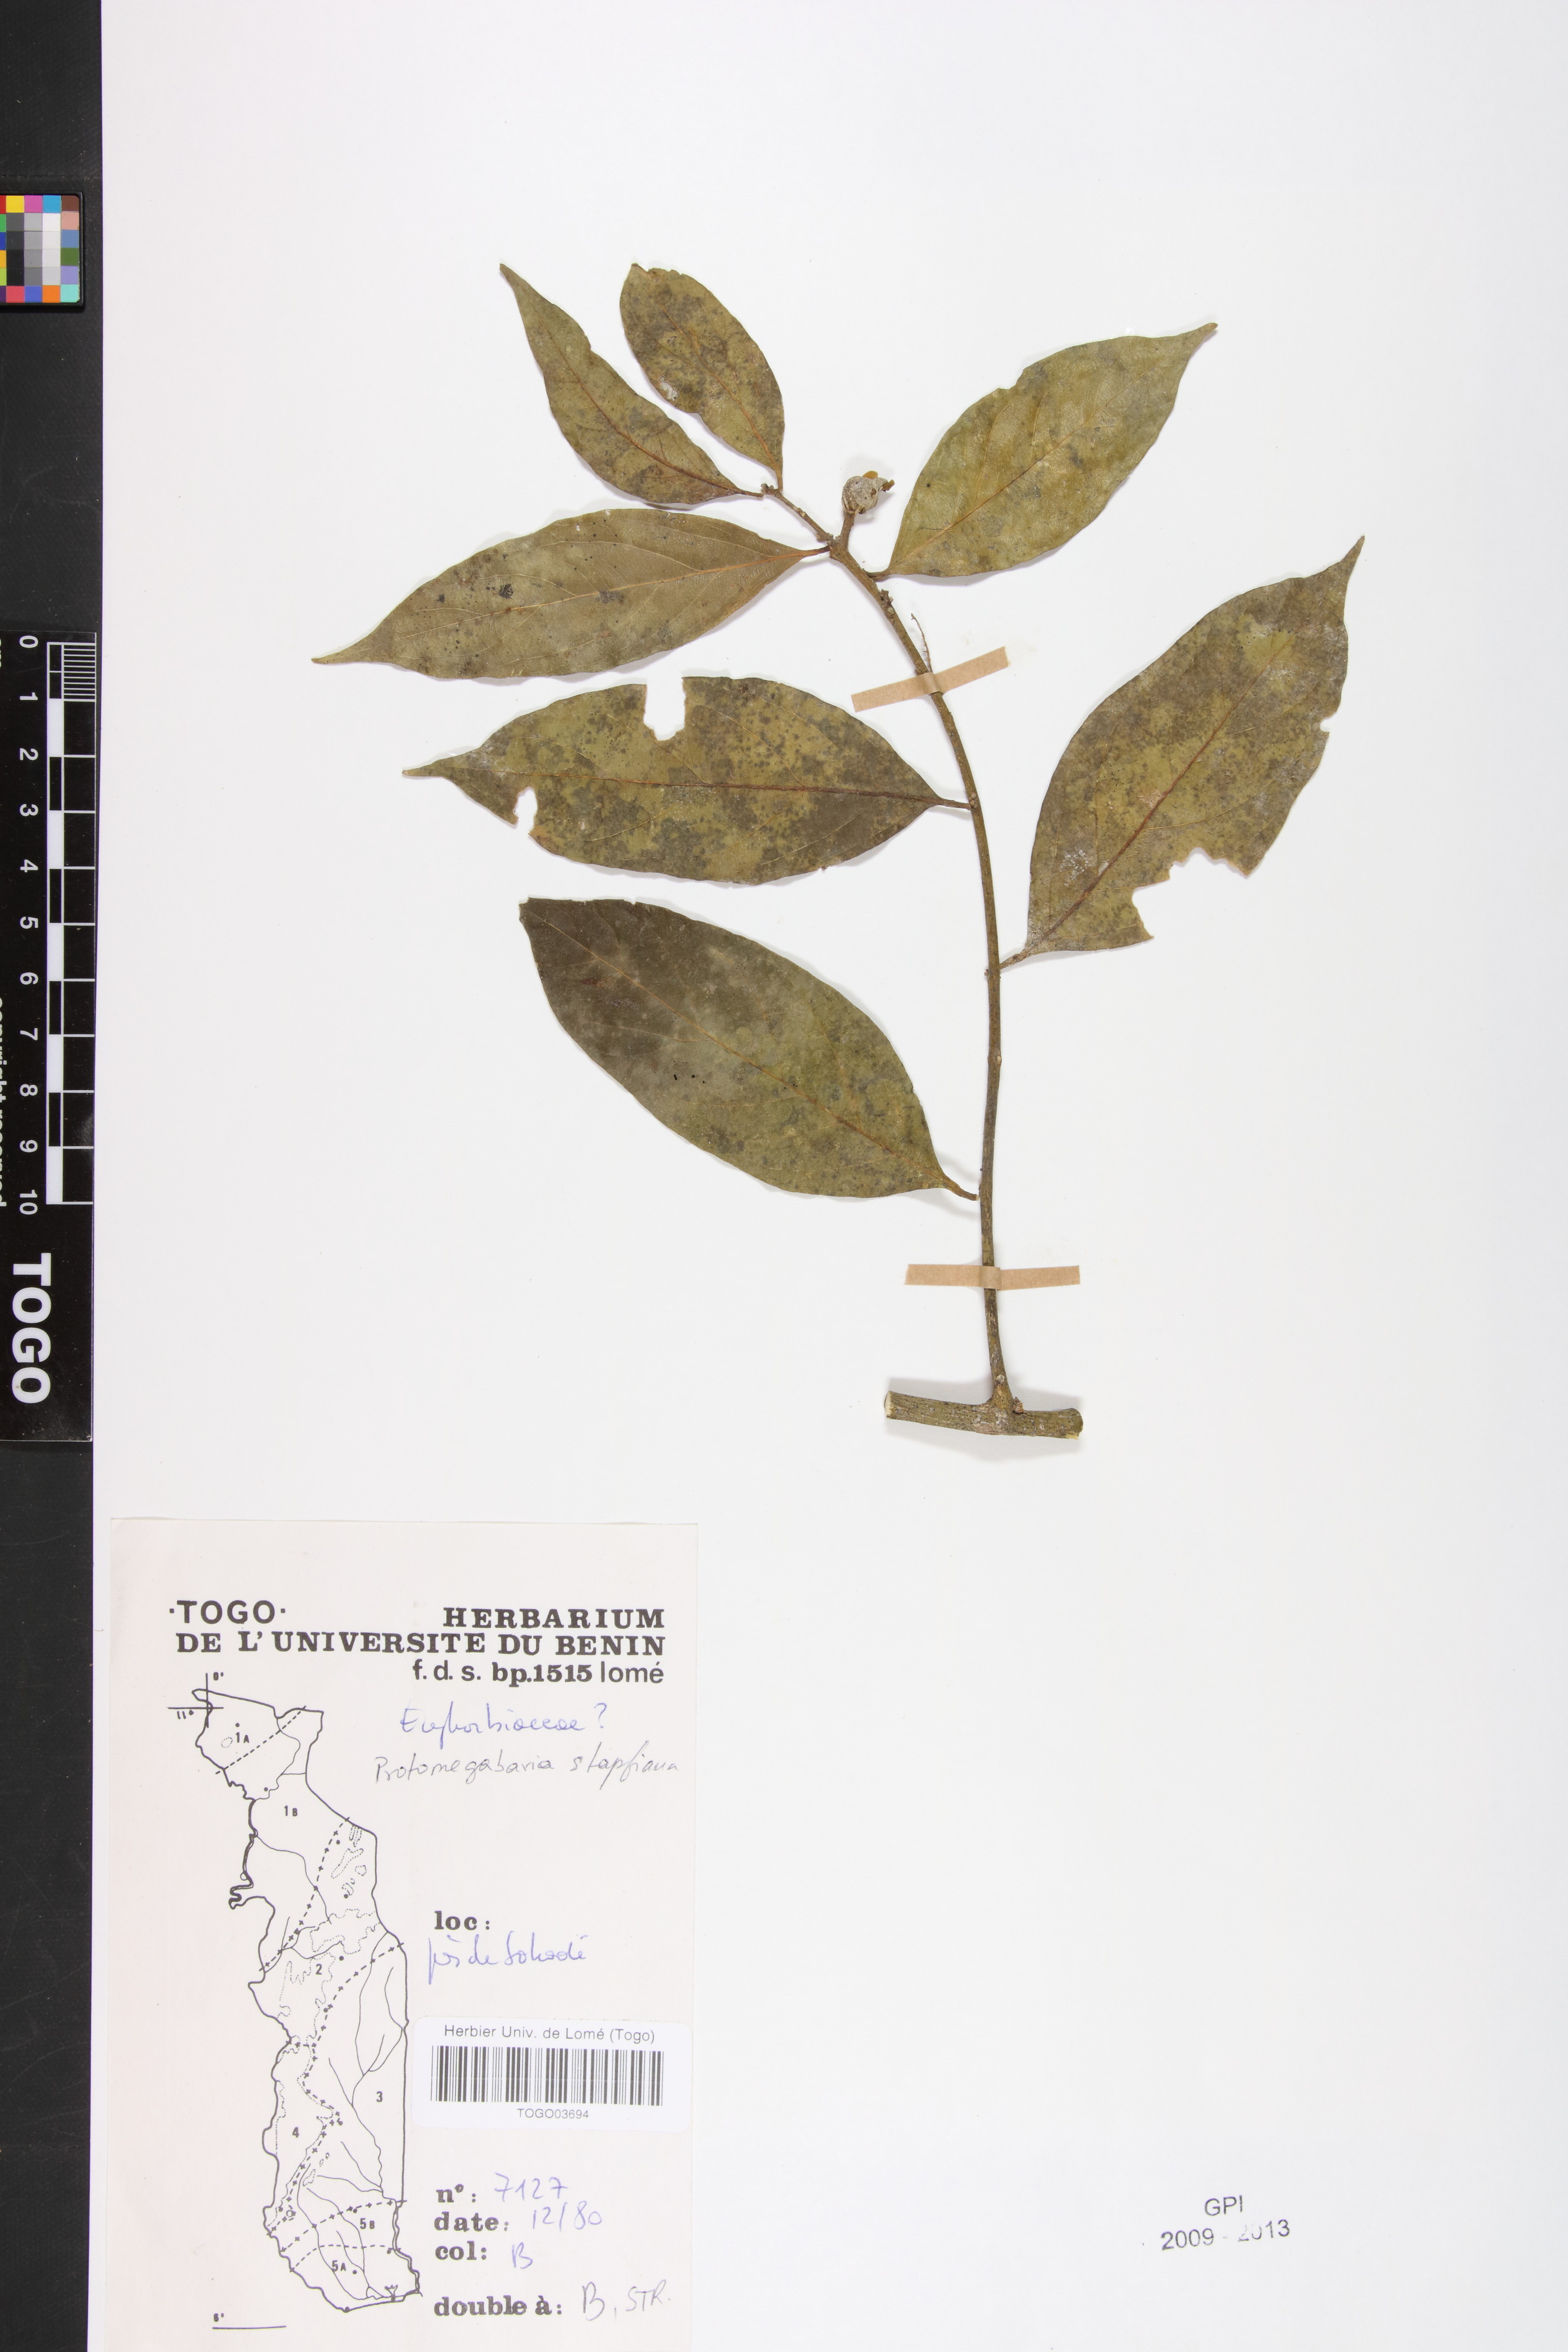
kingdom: Plantae
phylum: Tracheophyta
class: Magnoliopsida
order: Malpighiales
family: Phyllanthaceae
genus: Protomegabaria
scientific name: Protomegabaria stapfiana
